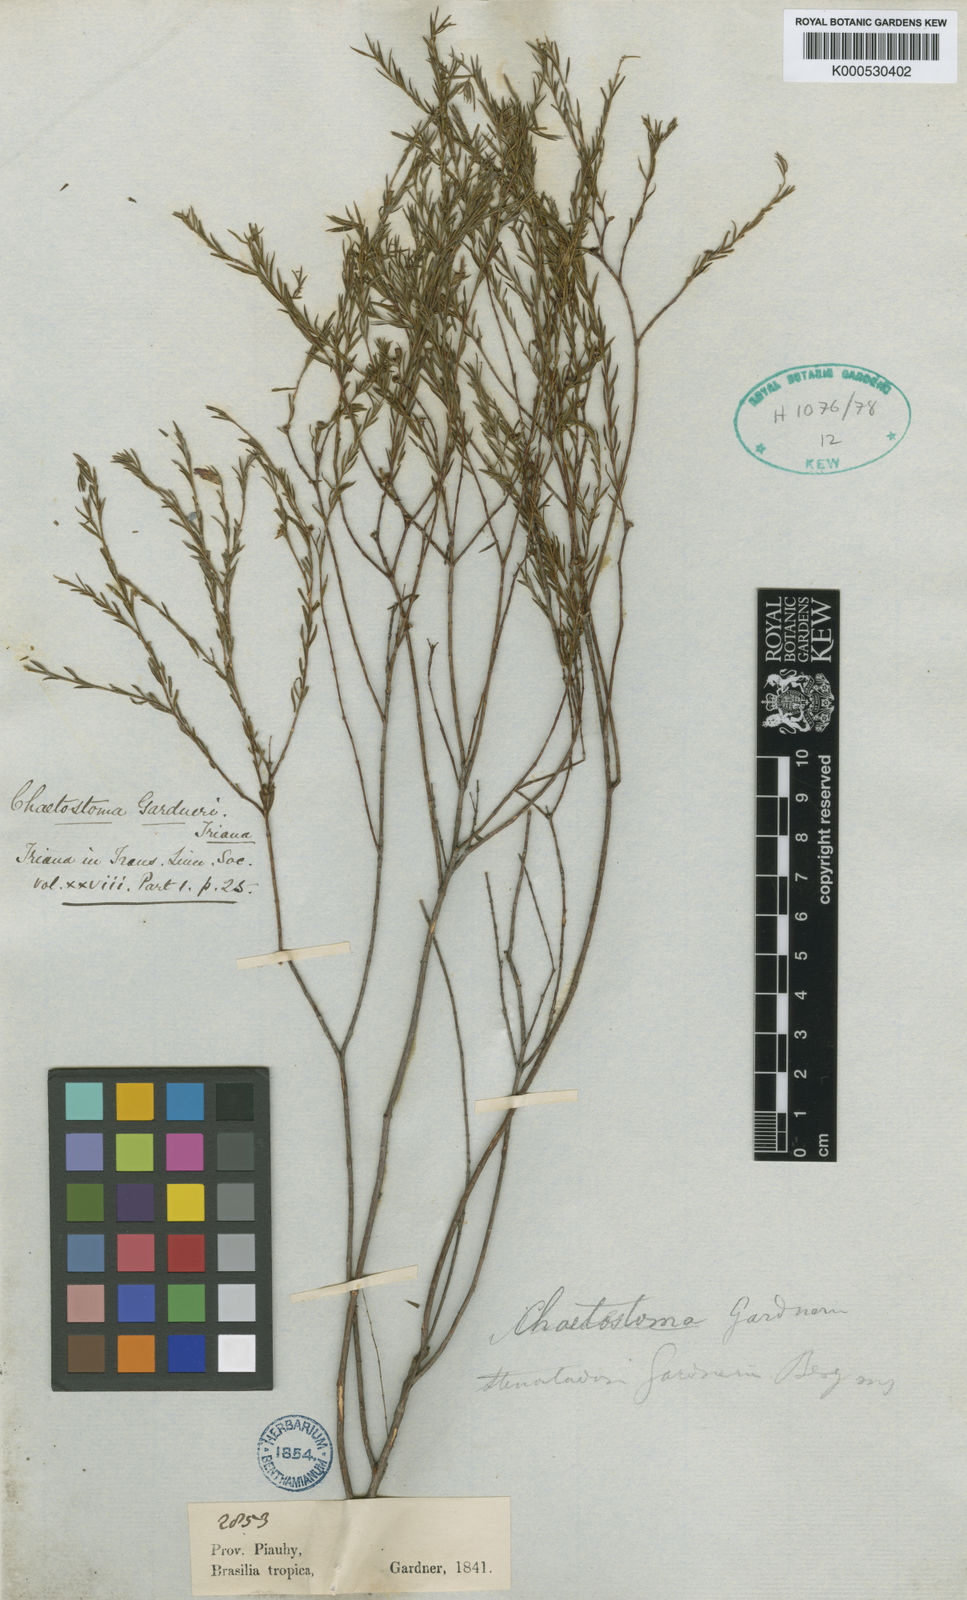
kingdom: Plantae
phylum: Tracheophyta
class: Magnoliopsida
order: Myrtales
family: Melastomataceae
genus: Microlicia
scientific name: Microlicia baumgratziana
